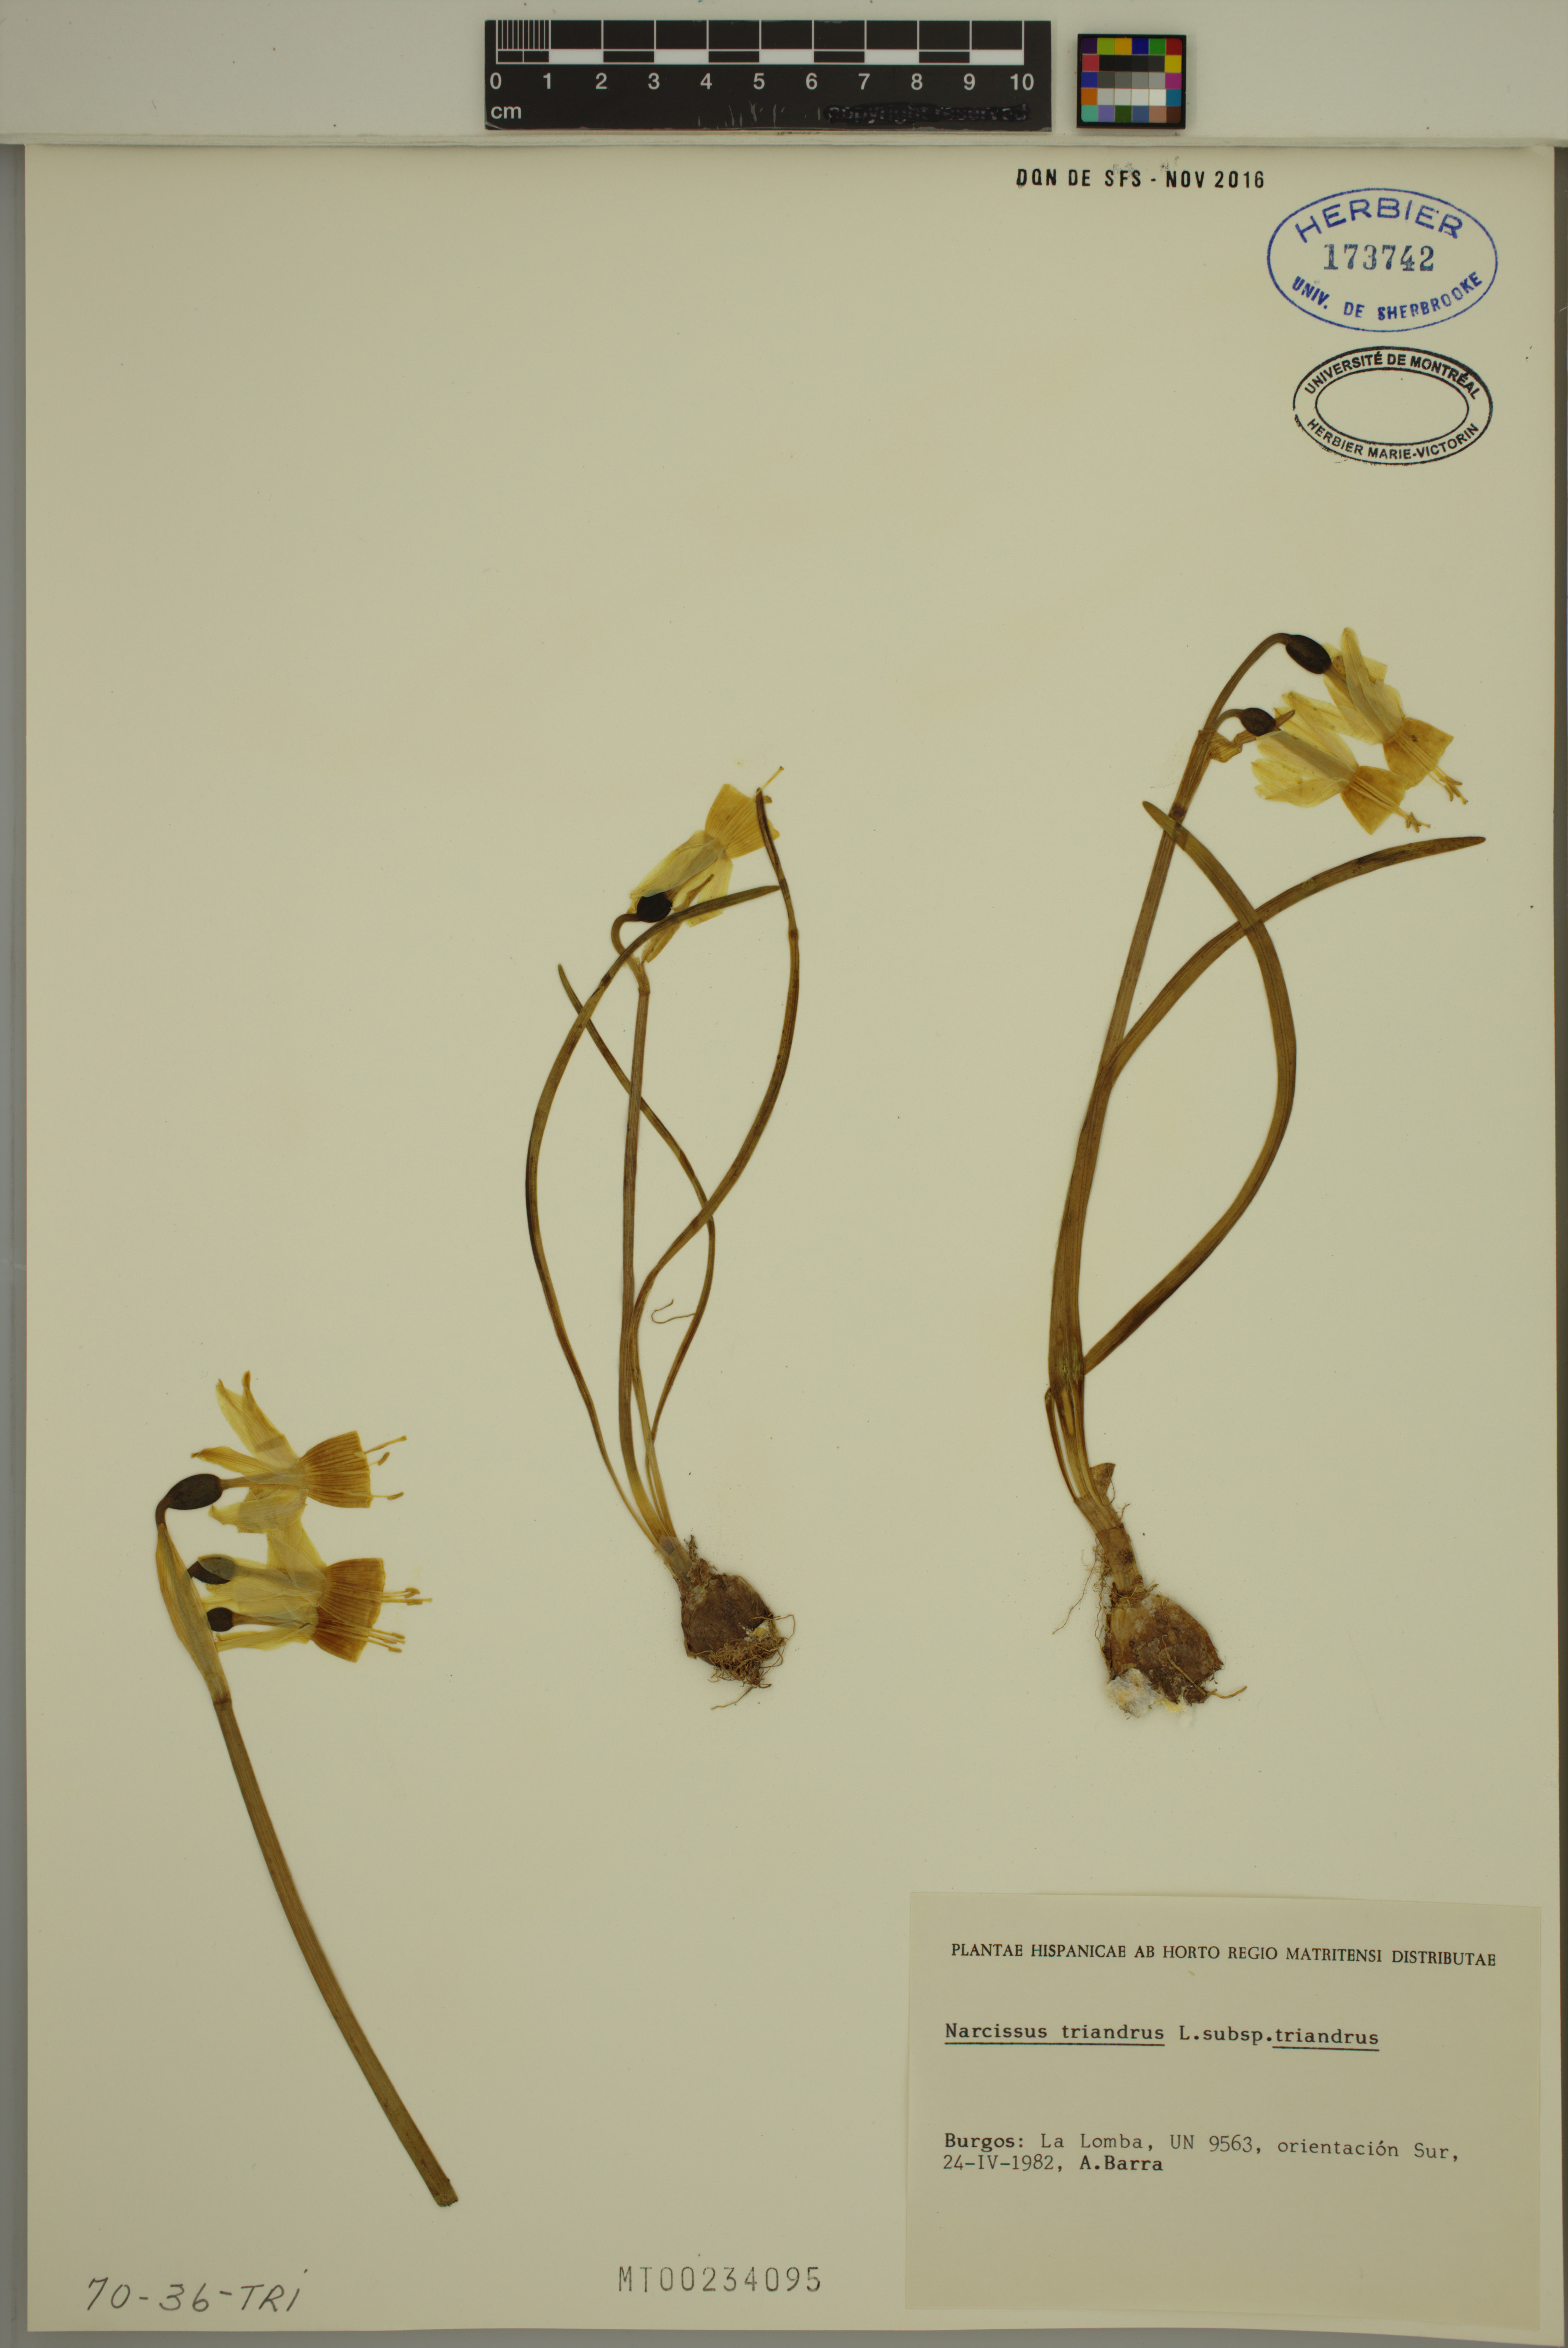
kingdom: Plantae
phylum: Tracheophyta
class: Liliopsida
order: Asparagales
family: Amaryllidaceae
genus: Narcissus
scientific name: Narcissus triandrus
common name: Angel's-tears
